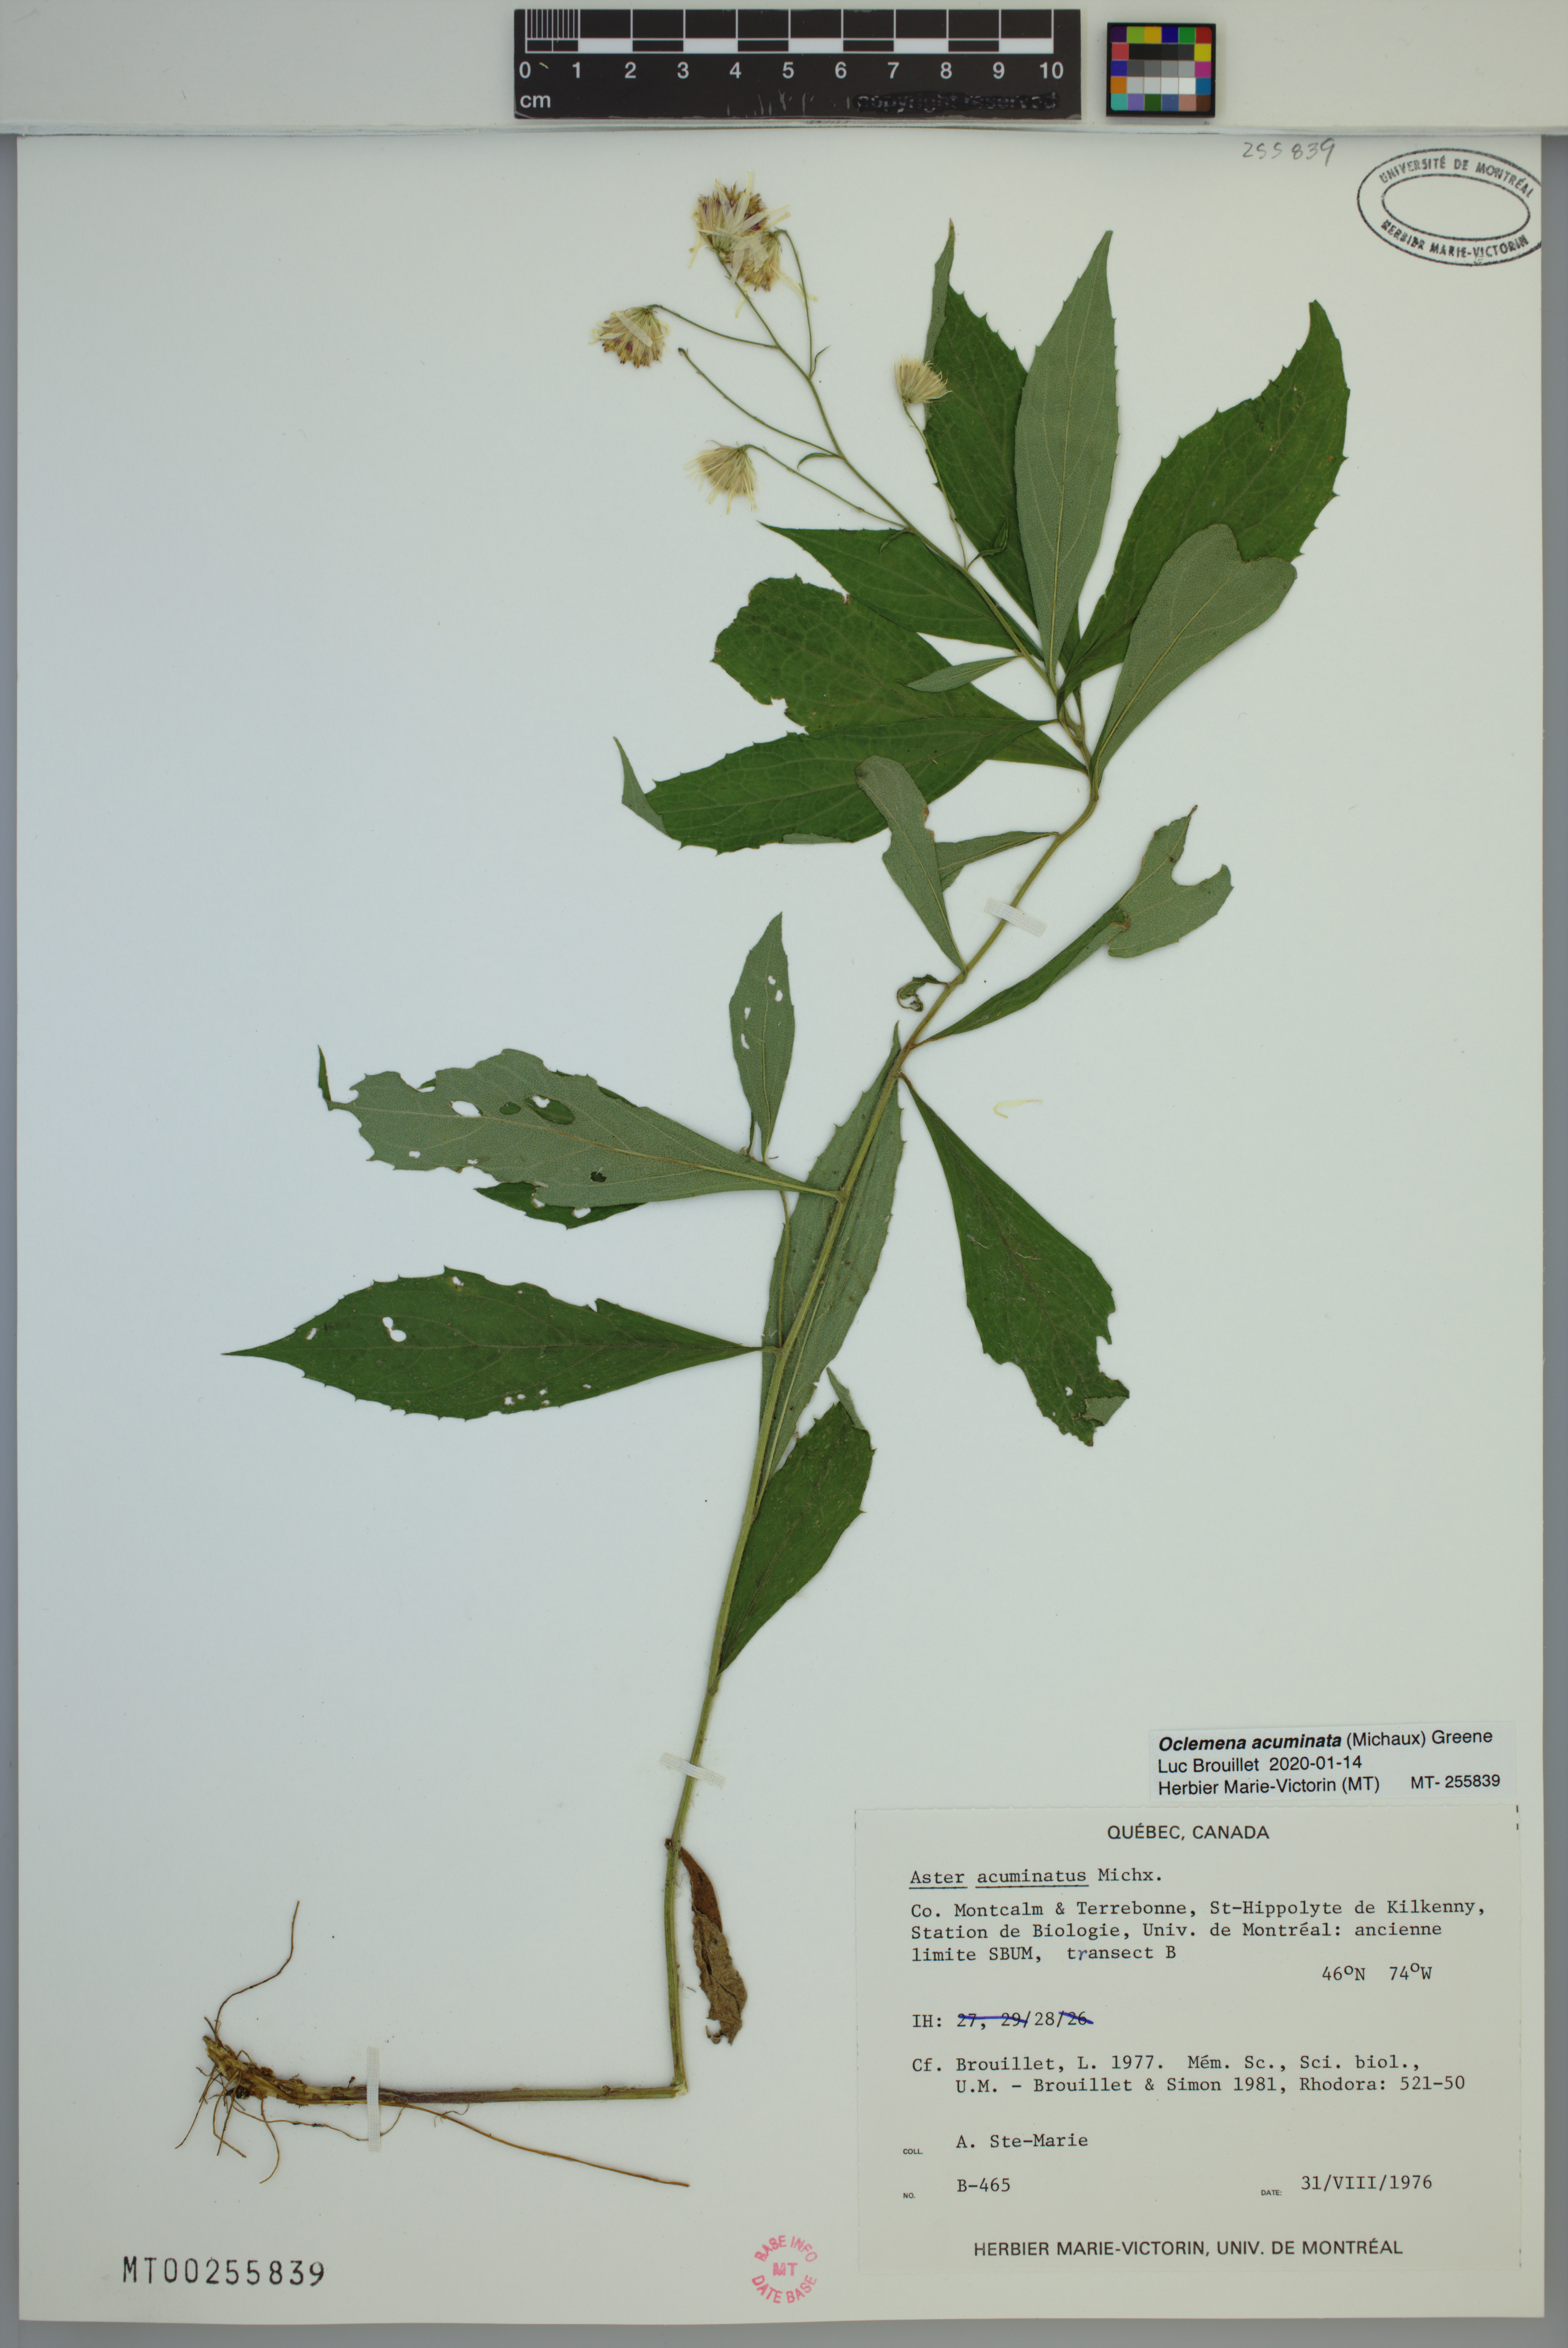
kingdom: Plantae
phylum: Tracheophyta
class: Magnoliopsida
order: Asterales
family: Asteraceae
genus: Oclemena
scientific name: Oclemena acuminata
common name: Mountain aster
